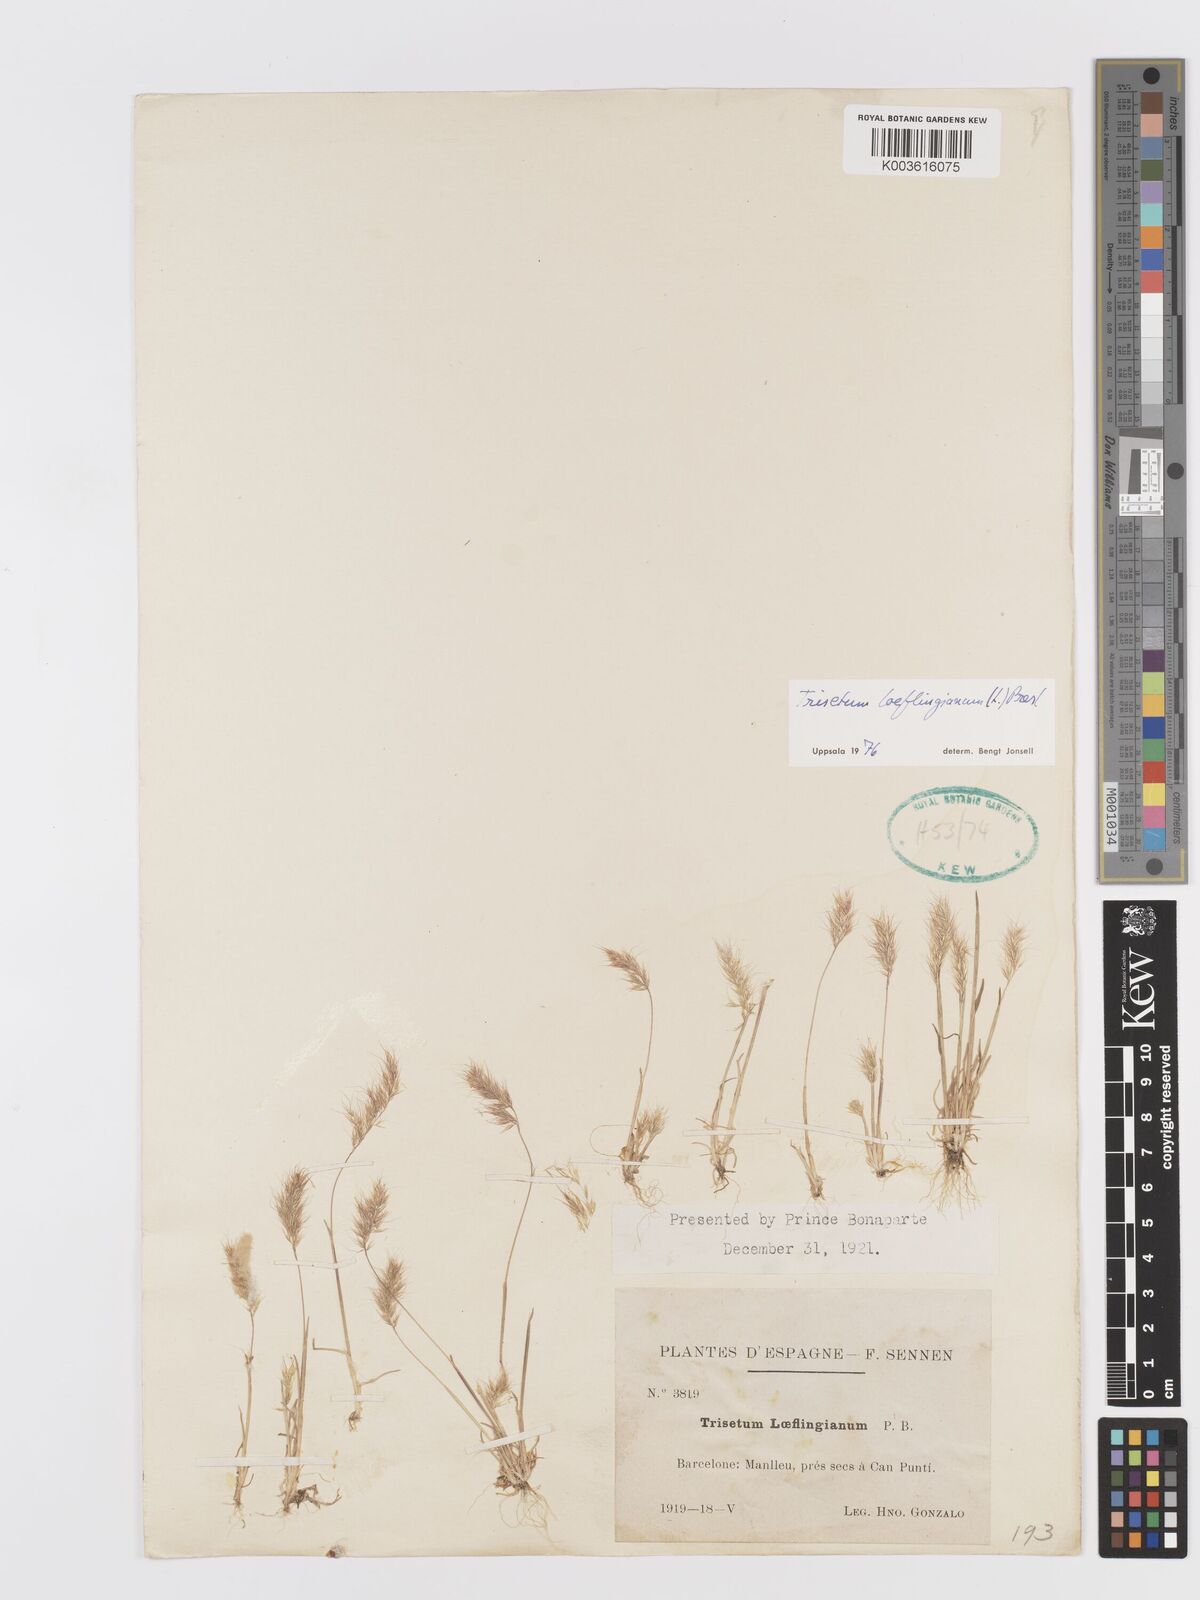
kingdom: Plantae
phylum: Tracheophyta
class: Liliopsida
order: Poales
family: Poaceae
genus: Trisetaria
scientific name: Trisetaria loeflingiana
